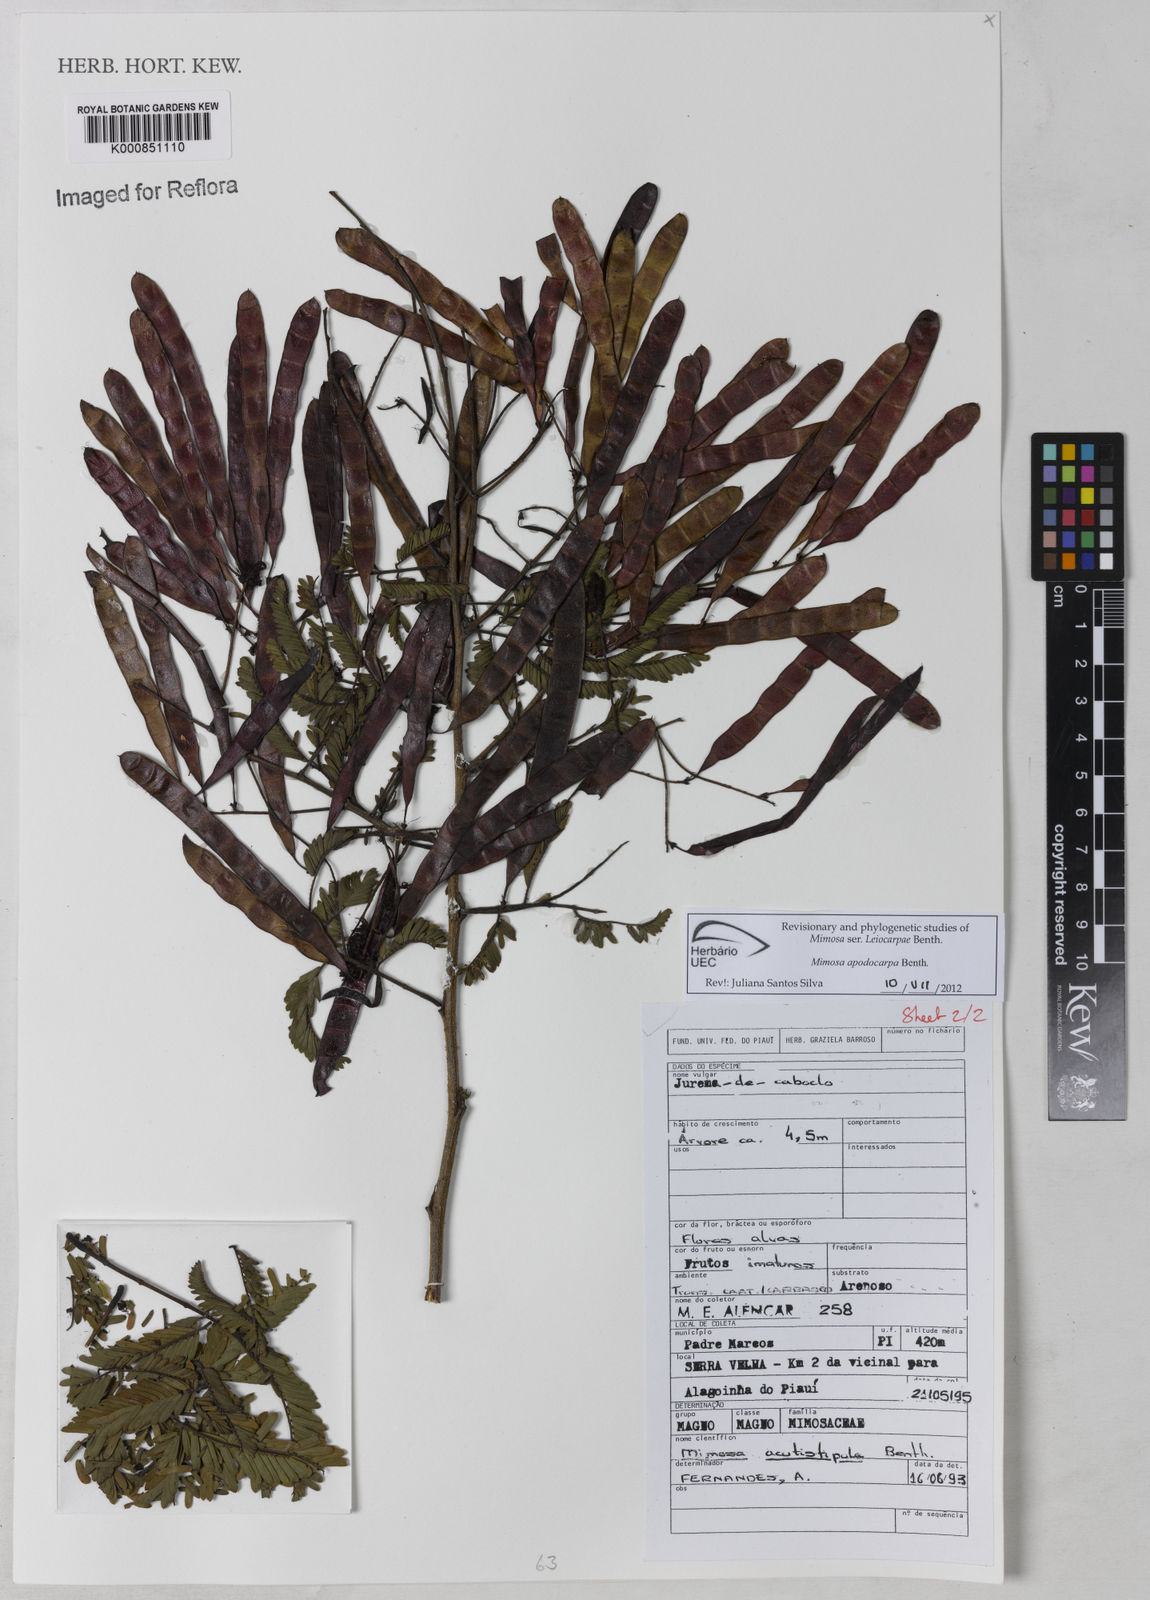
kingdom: Plantae
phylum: Tracheophyta
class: Magnoliopsida
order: Fabales
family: Fabaceae
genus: Mimosa
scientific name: Mimosa acutistipula
